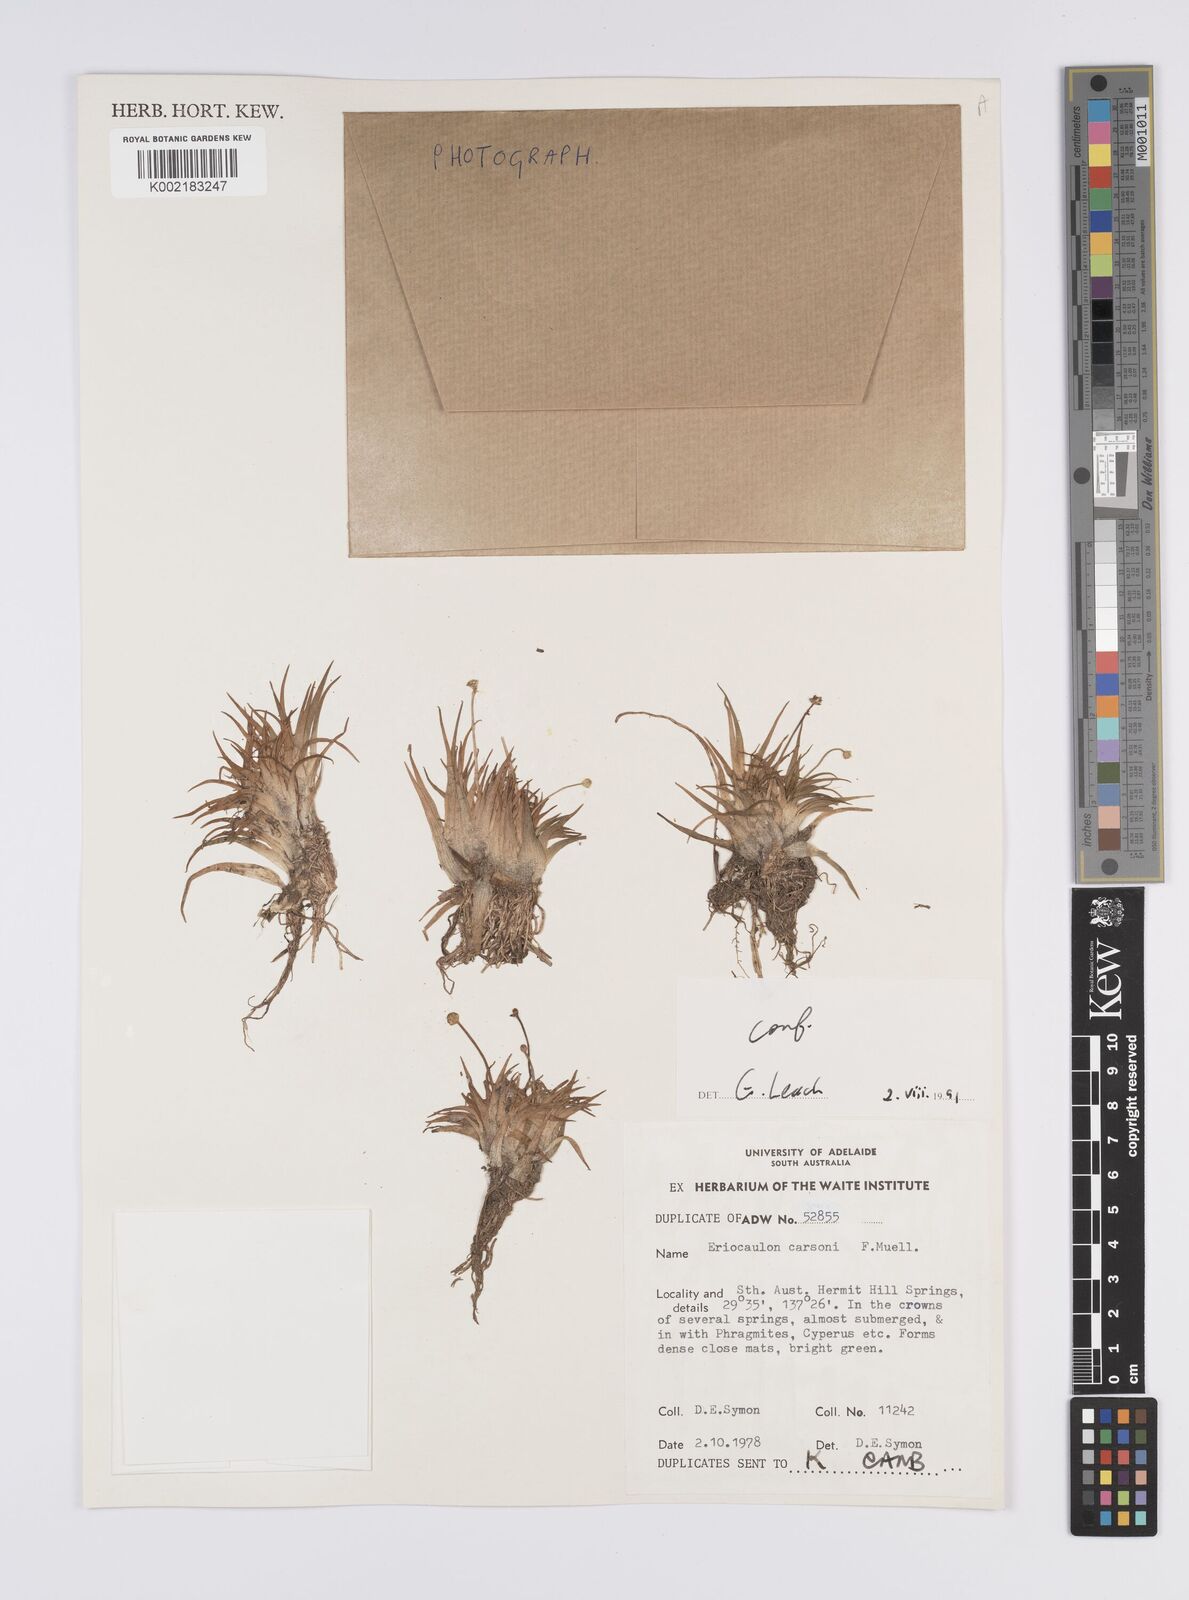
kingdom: Plantae
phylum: Tracheophyta
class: Liliopsida
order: Poales
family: Eriocaulaceae
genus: Eriocaulon
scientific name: Eriocaulon carsonii
